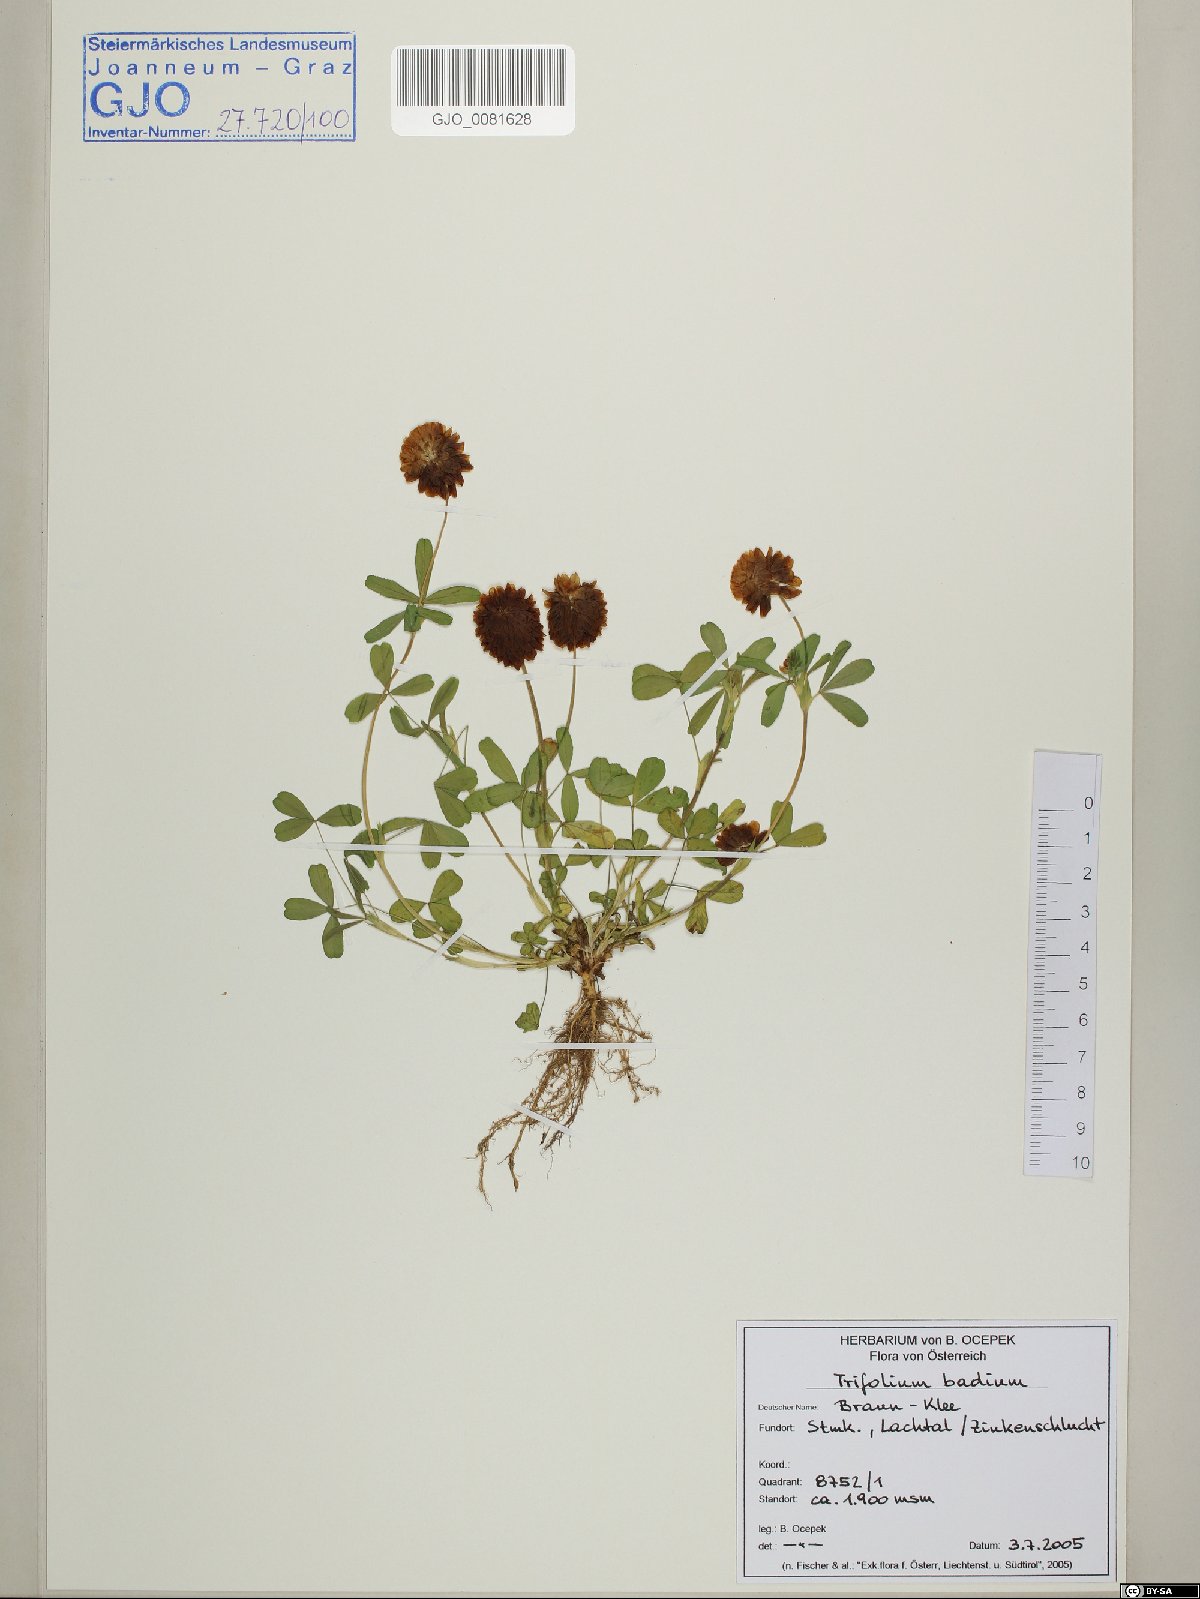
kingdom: Plantae
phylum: Tracheophyta
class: Magnoliopsida
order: Fabales
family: Fabaceae
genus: Trifolium
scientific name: Trifolium badium
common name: Brown clover
